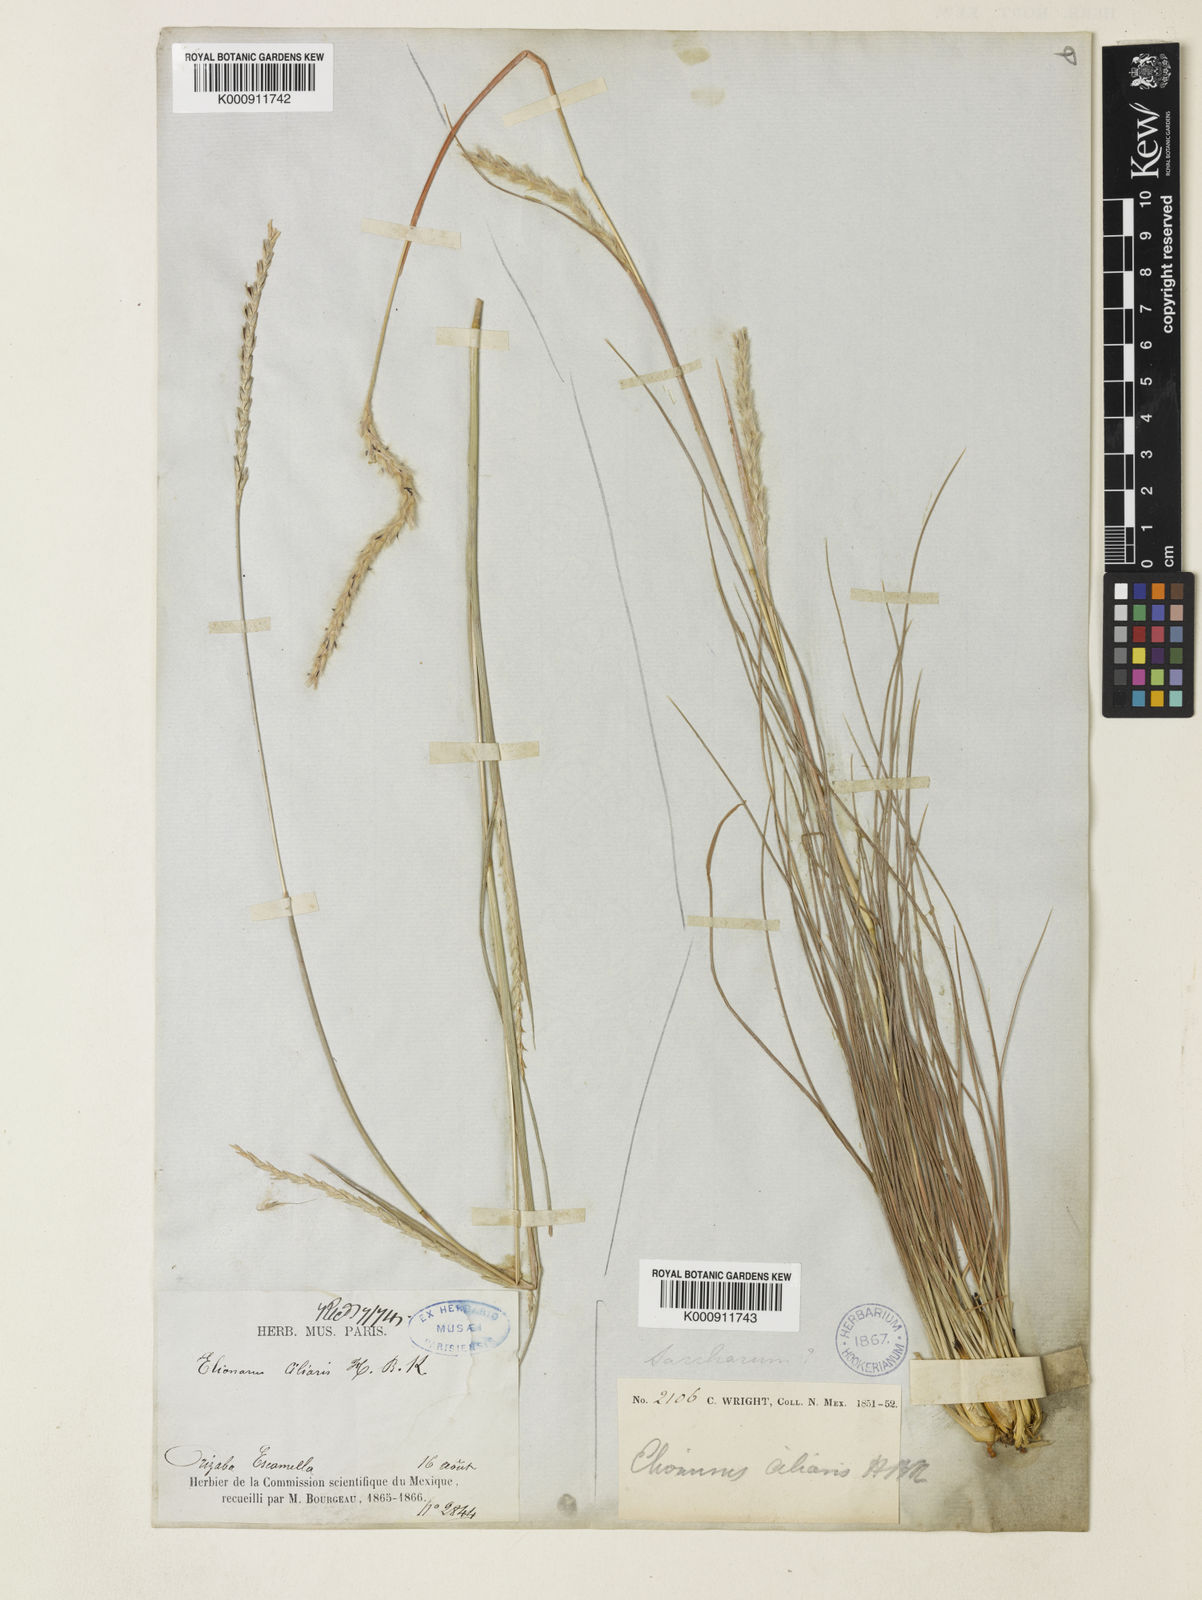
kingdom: Plantae
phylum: Tracheophyta
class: Liliopsida
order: Poales
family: Poaceae
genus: Elionurus
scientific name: Elionurus
